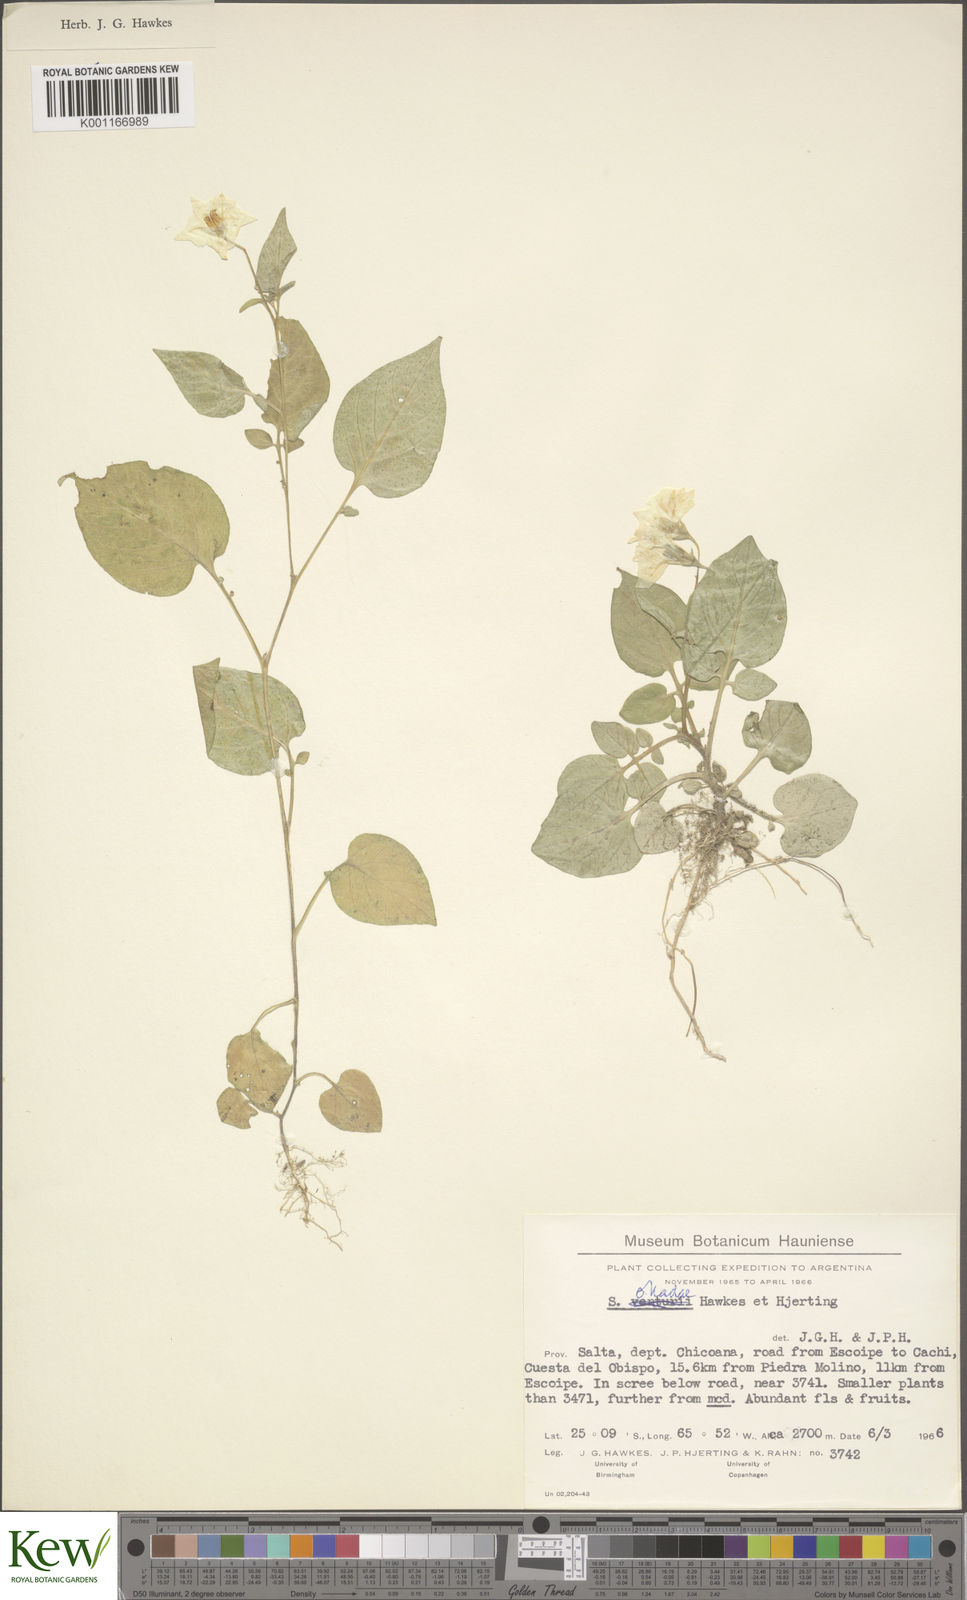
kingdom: Plantae
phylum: Tracheophyta
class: Magnoliopsida
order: Solanales
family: Solanaceae
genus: Solanum
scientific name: Solanum okadae
